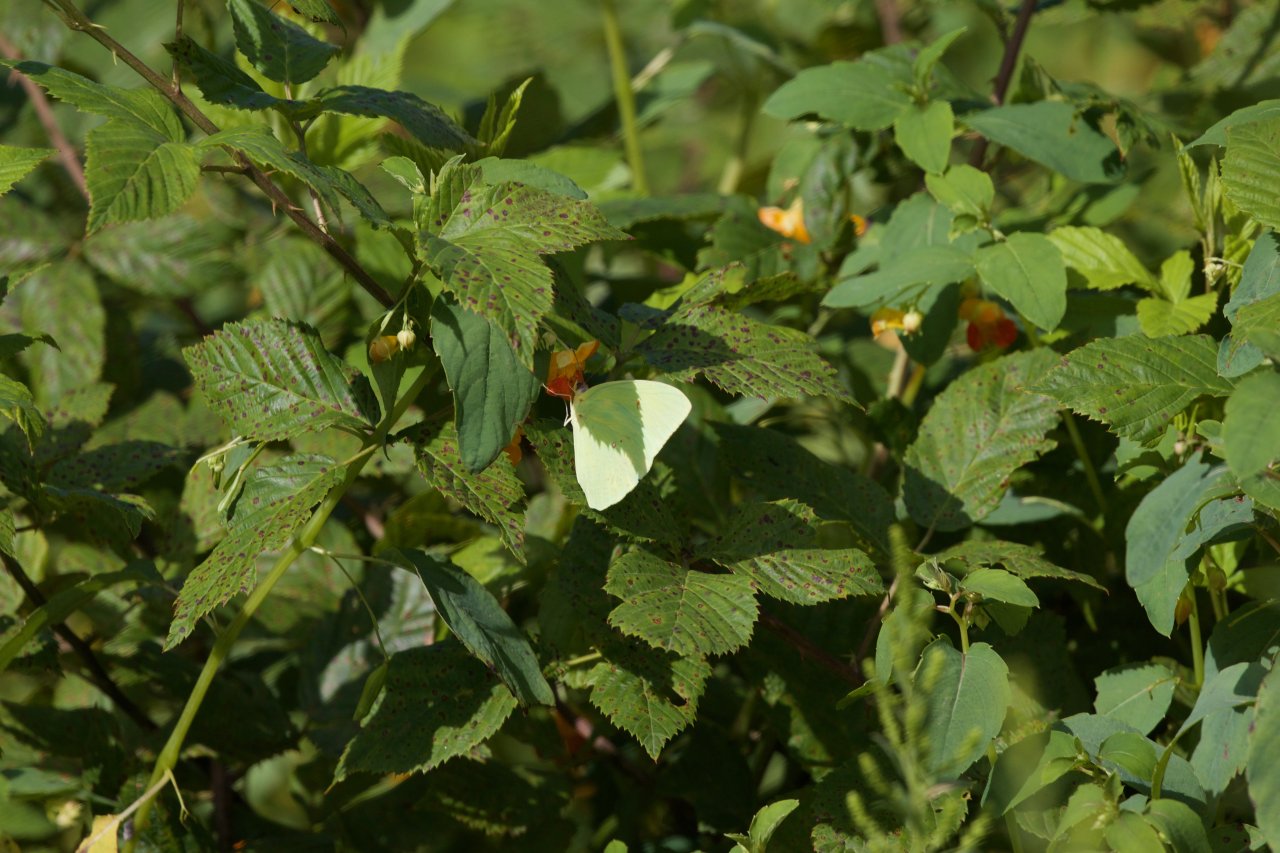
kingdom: Animalia
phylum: Arthropoda
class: Insecta
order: Lepidoptera
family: Pieridae
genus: Phoebis
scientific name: Phoebis sennae
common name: Cloudless Sulphur
